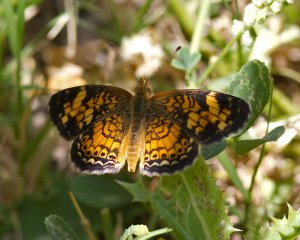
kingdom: Animalia
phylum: Arthropoda
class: Insecta
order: Lepidoptera
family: Nymphalidae
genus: Phyciodes
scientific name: Phyciodes tharos
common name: Pearl Crescent
